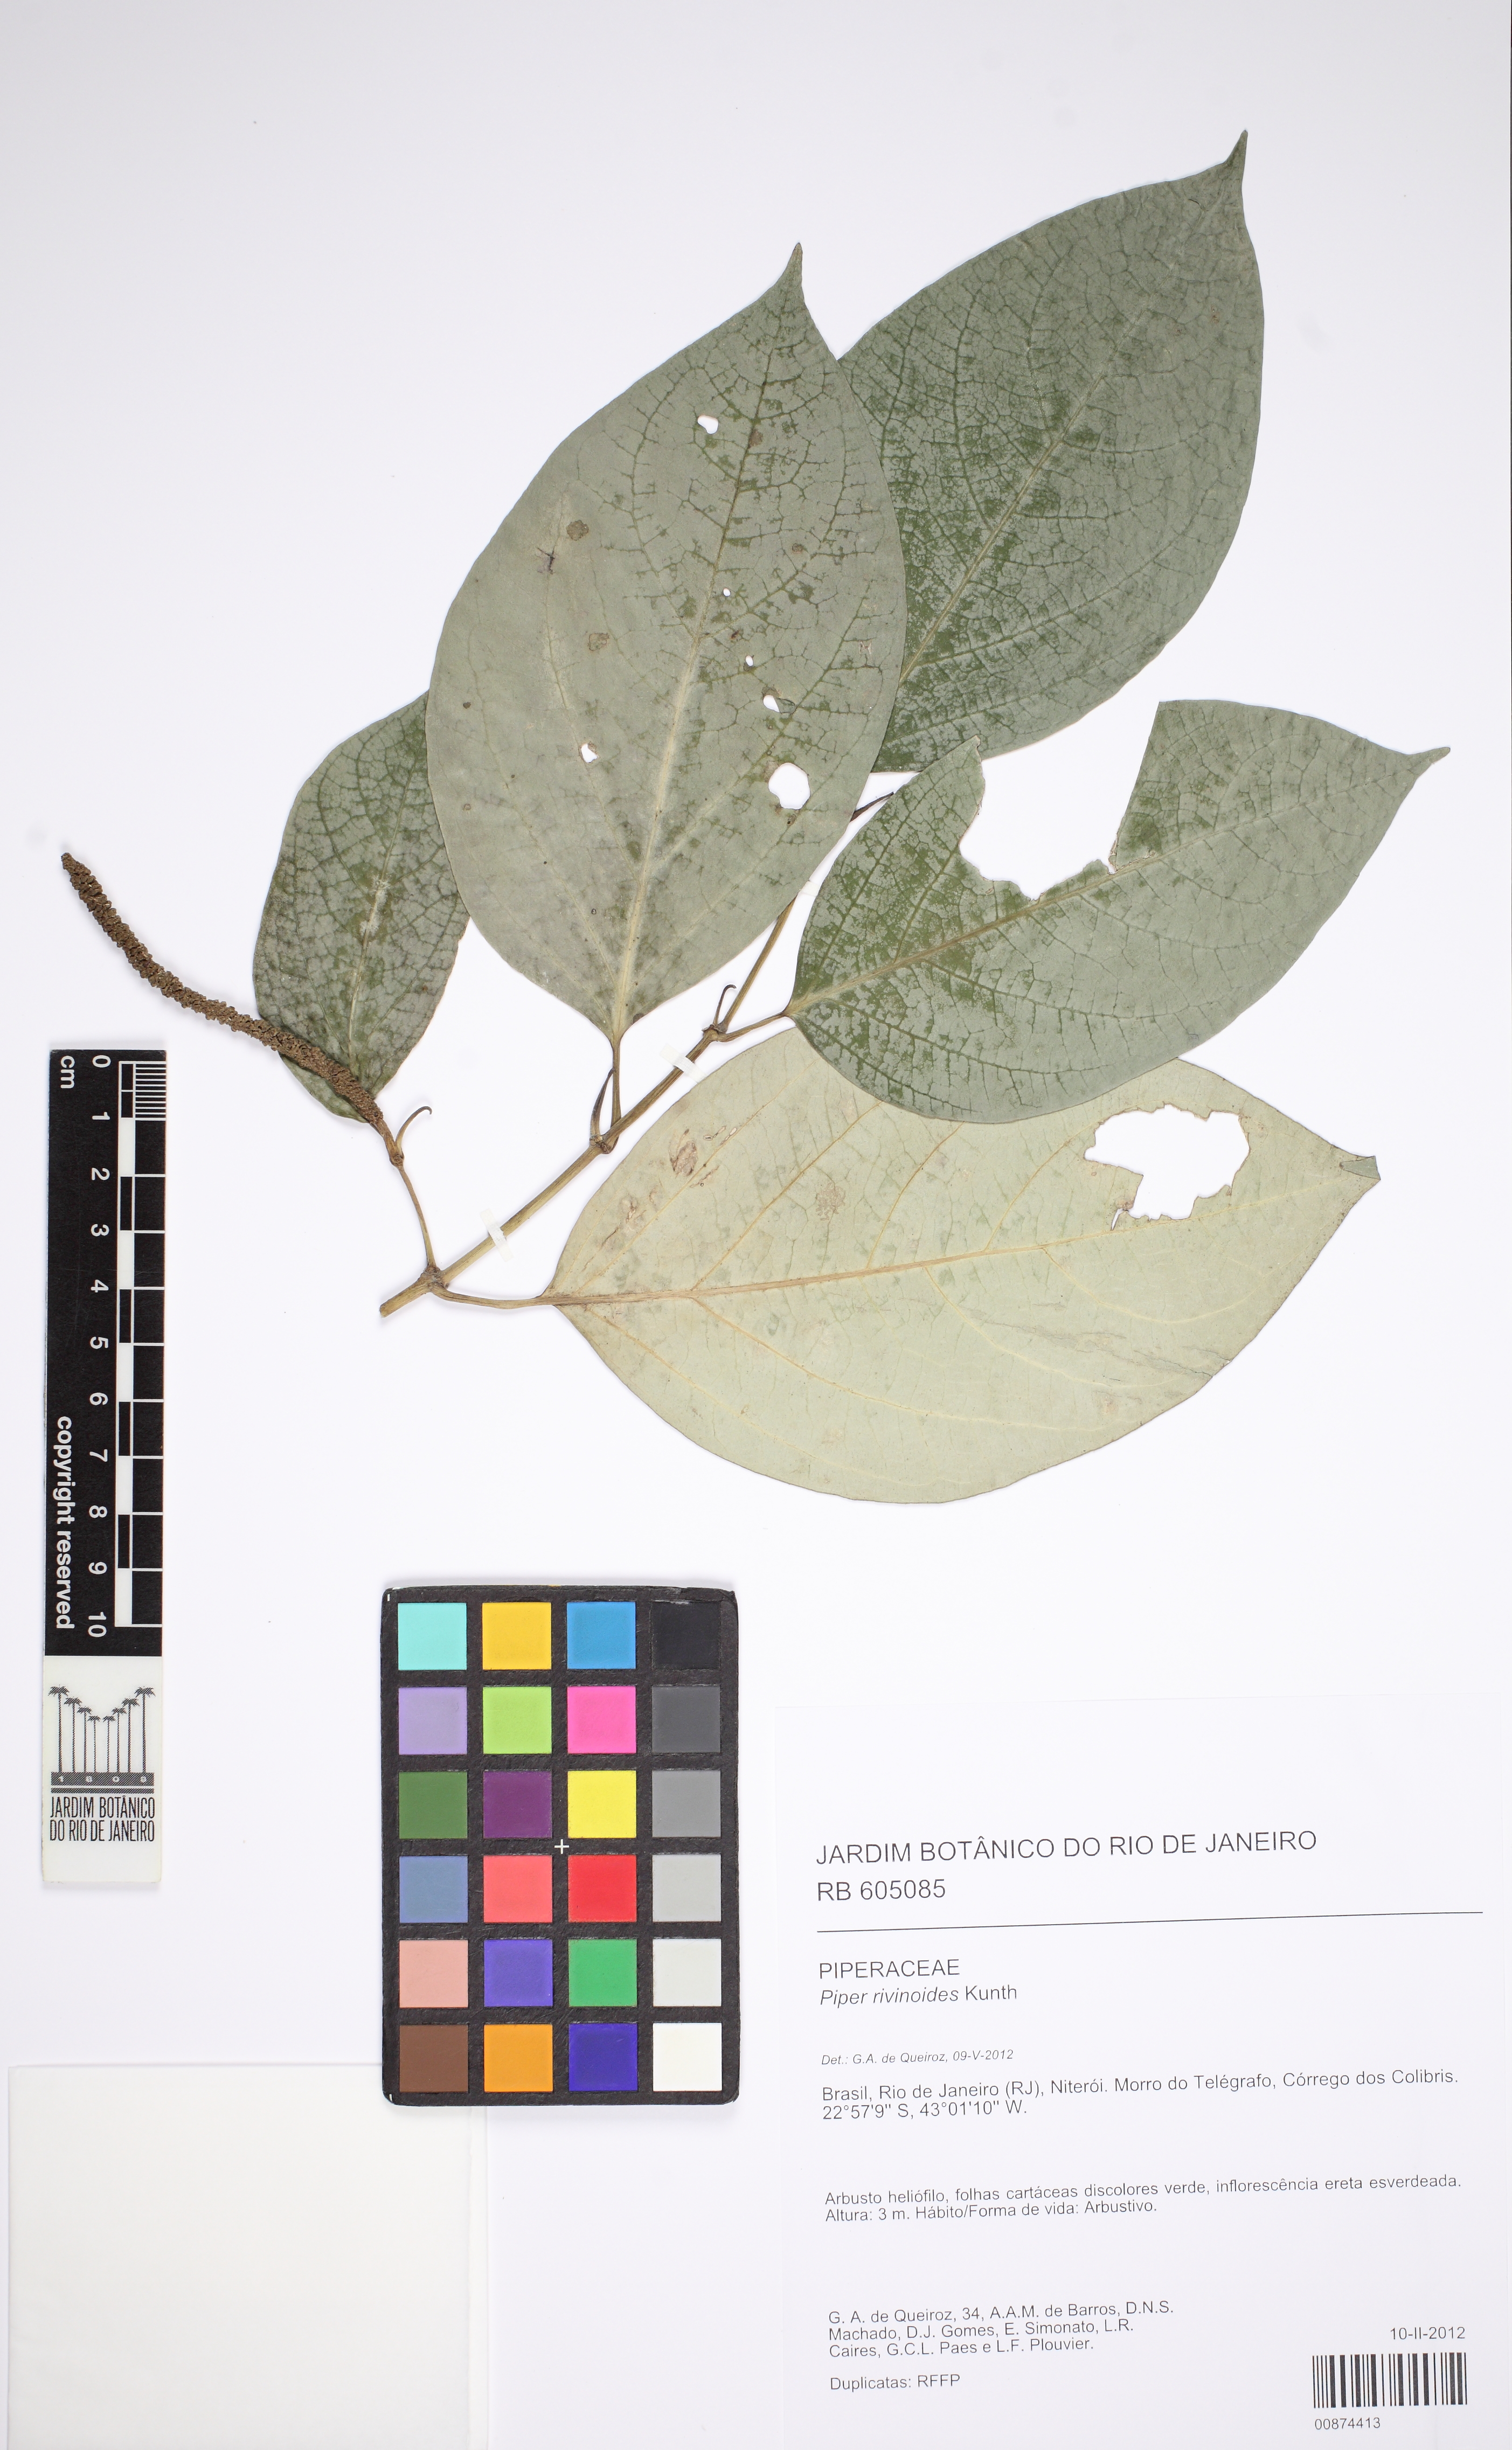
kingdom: Plantae
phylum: Tracheophyta
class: Magnoliopsida
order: Piperales
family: Piperaceae
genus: Piper
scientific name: Piper rivinoides
